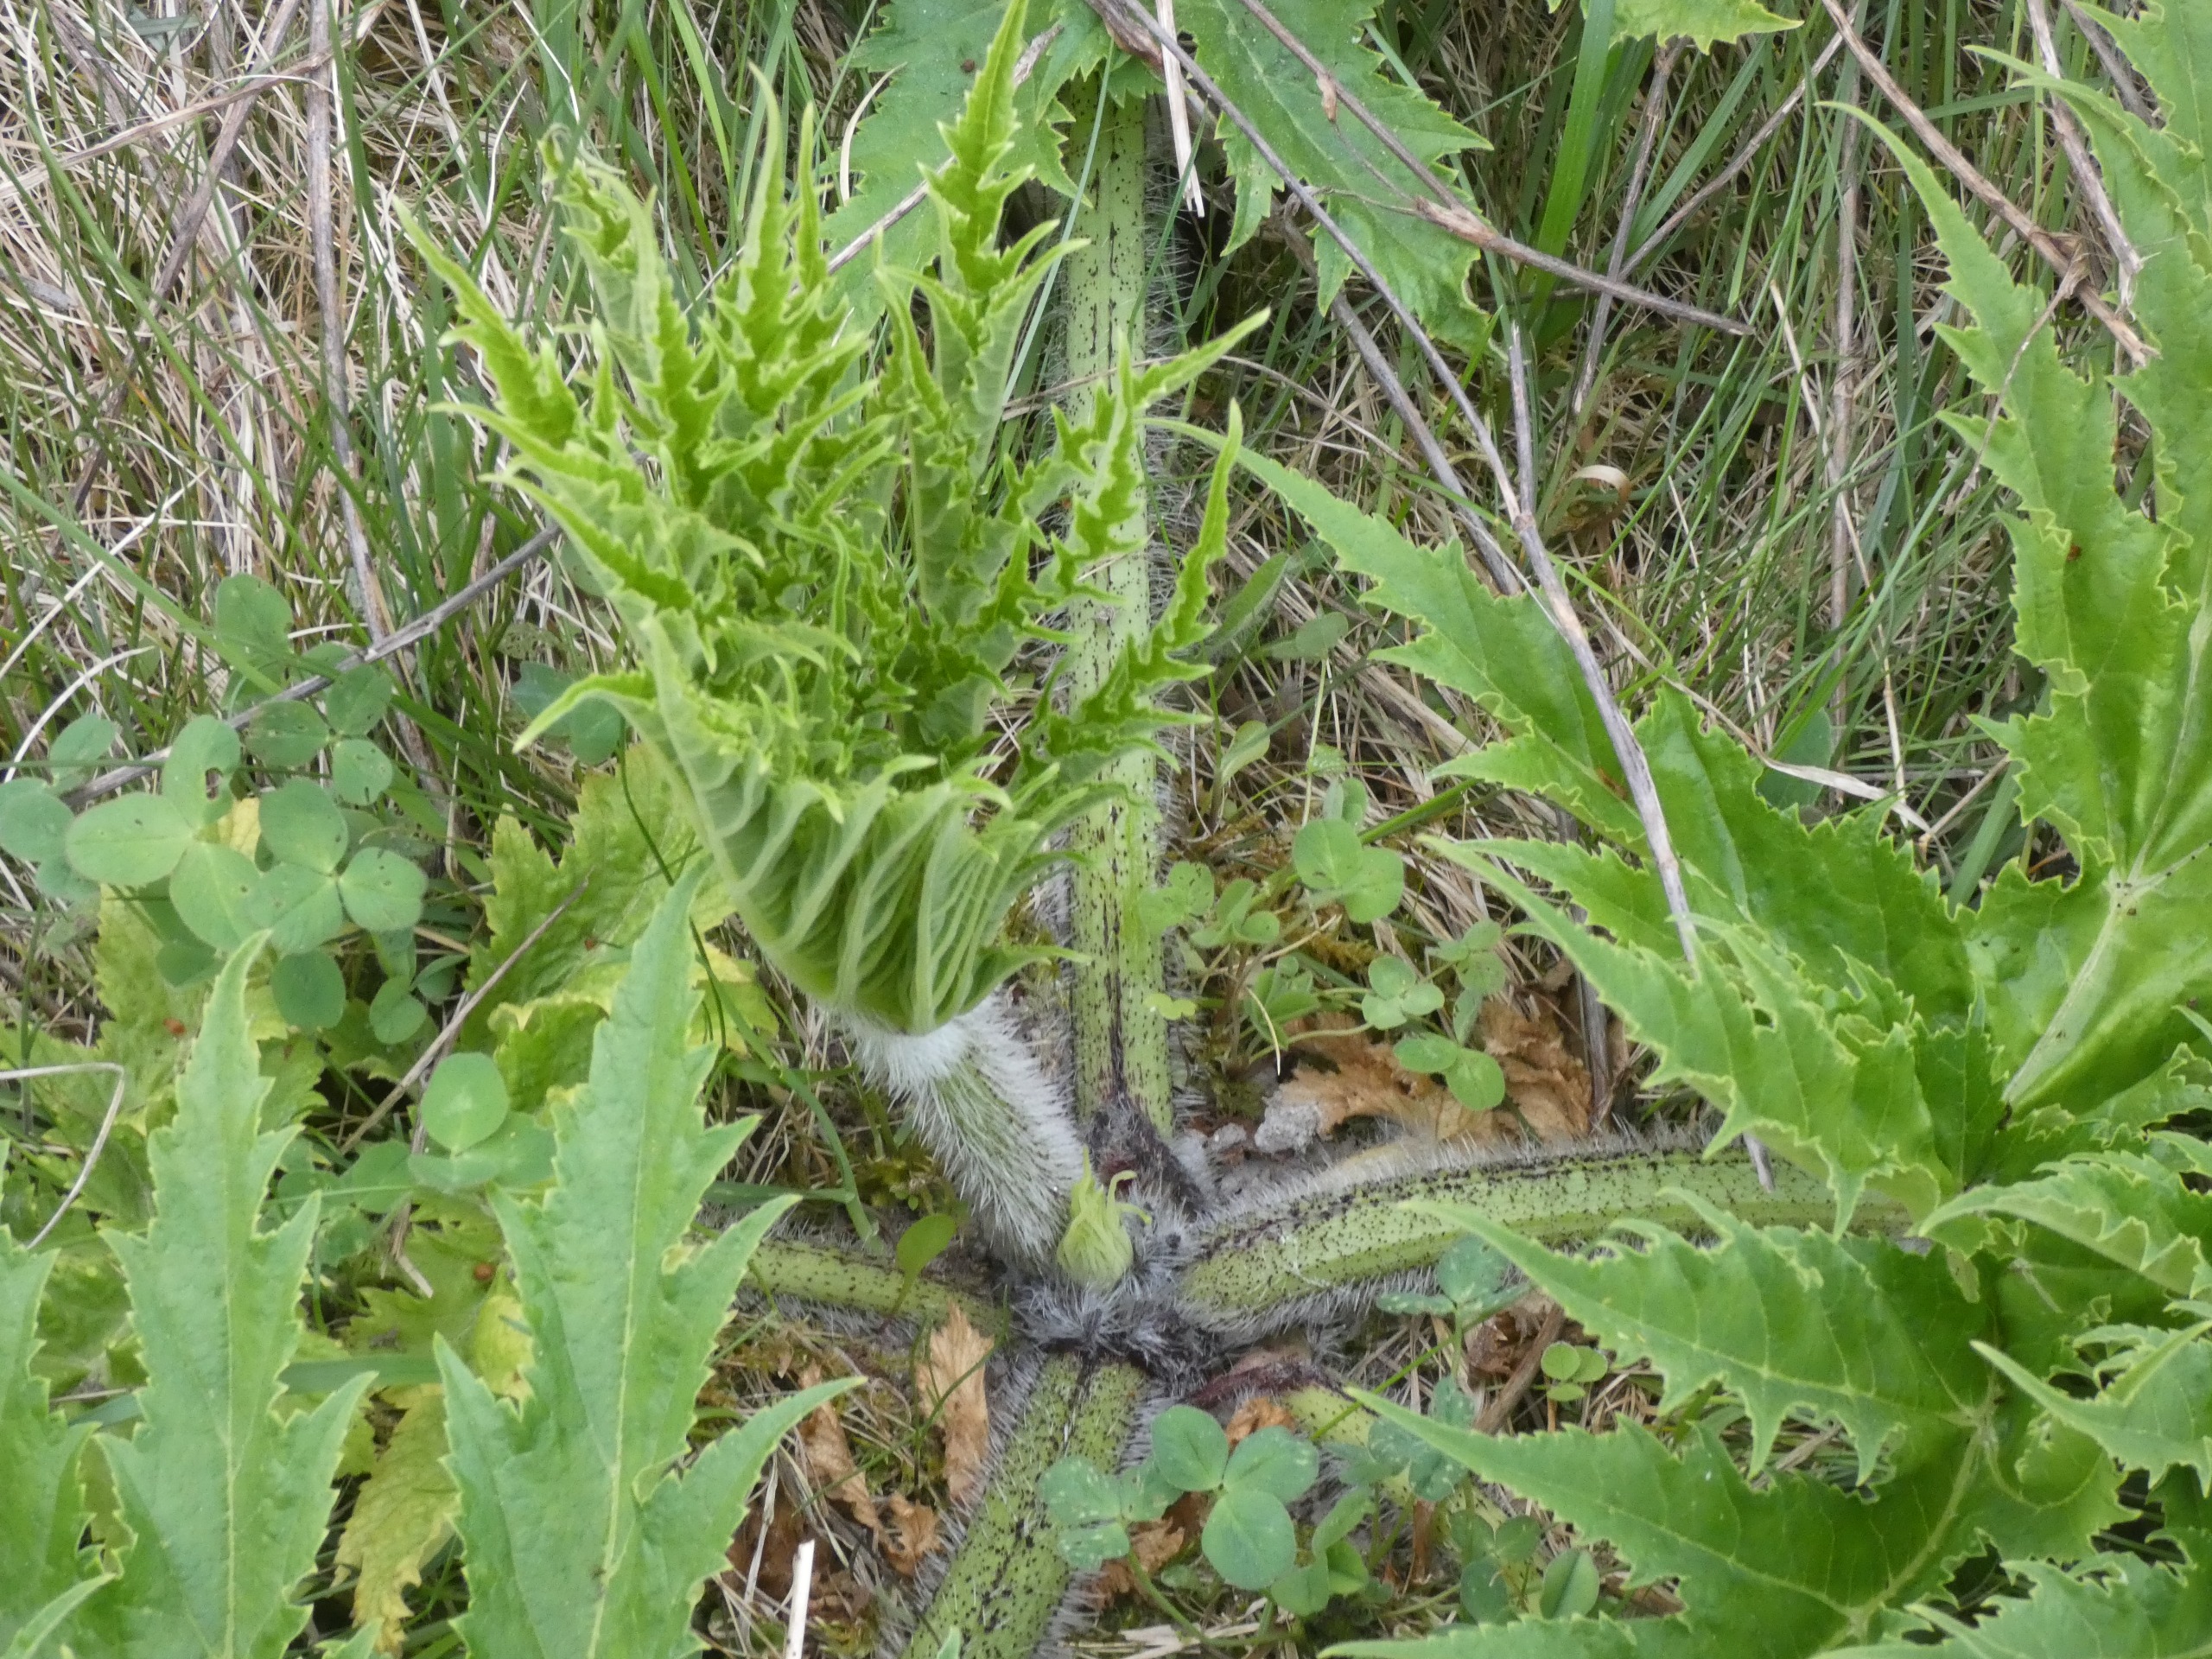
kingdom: Plantae
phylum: Tracheophyta
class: Magnoliopsida
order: Apiales
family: Apiaceae
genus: Heracleum
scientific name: Heracleum mantegazzianum
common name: Kæmpe-bjørneklo
